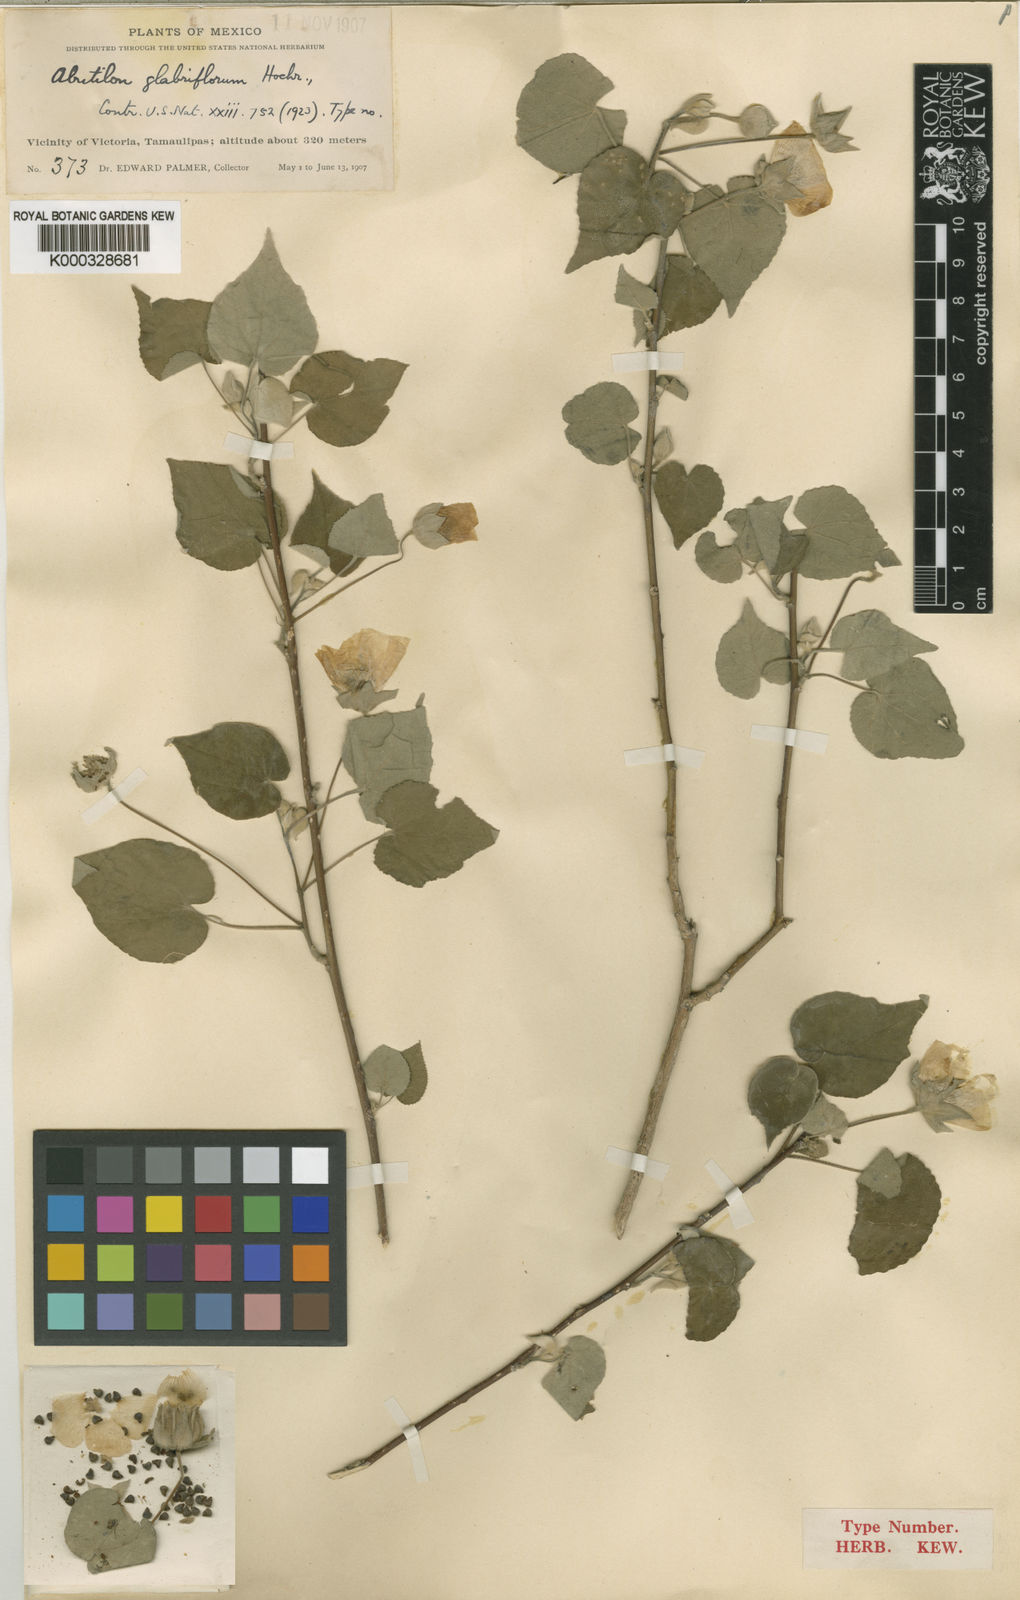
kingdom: Plantae
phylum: Tracheophyta
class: Magnoliopsida
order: Malvales
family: Malvaceae
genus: Abutilon
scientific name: Abutilon glabriflorum
